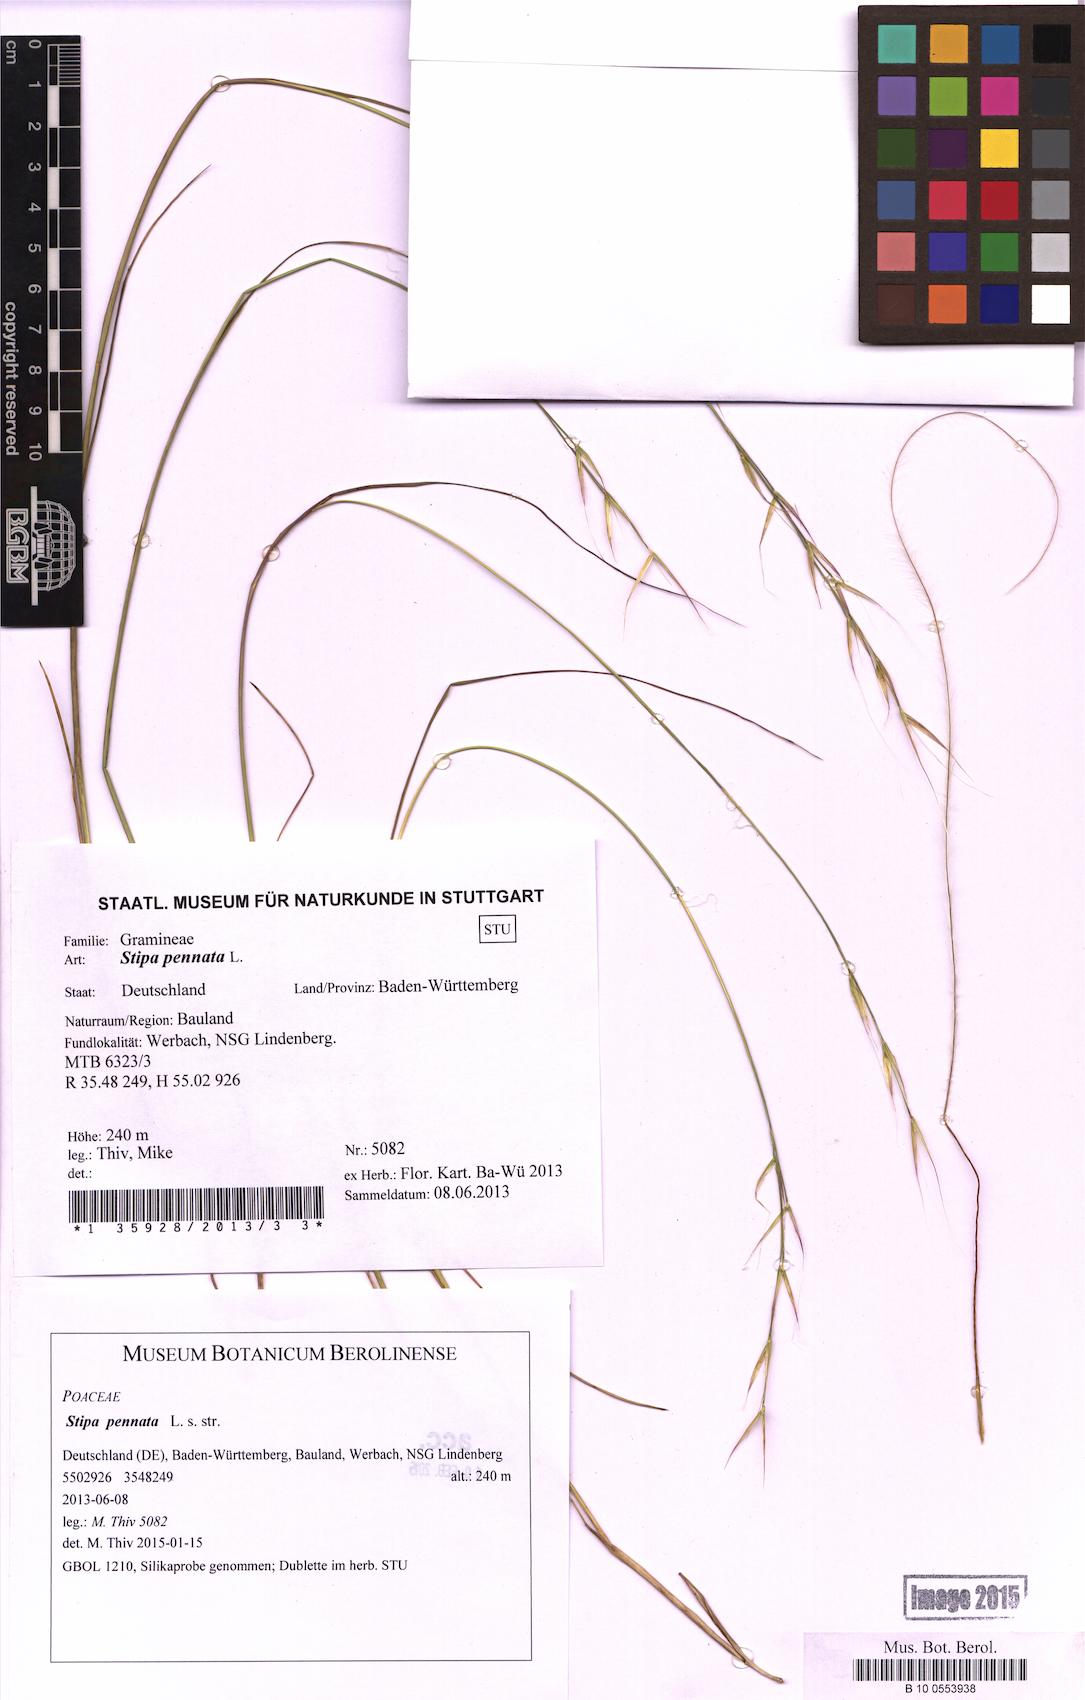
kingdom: Plantae
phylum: Tracheophyta
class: Liliopsida
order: Poales
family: Poaceae
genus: Stipa
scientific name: Stipa pennata
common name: European feather grass
